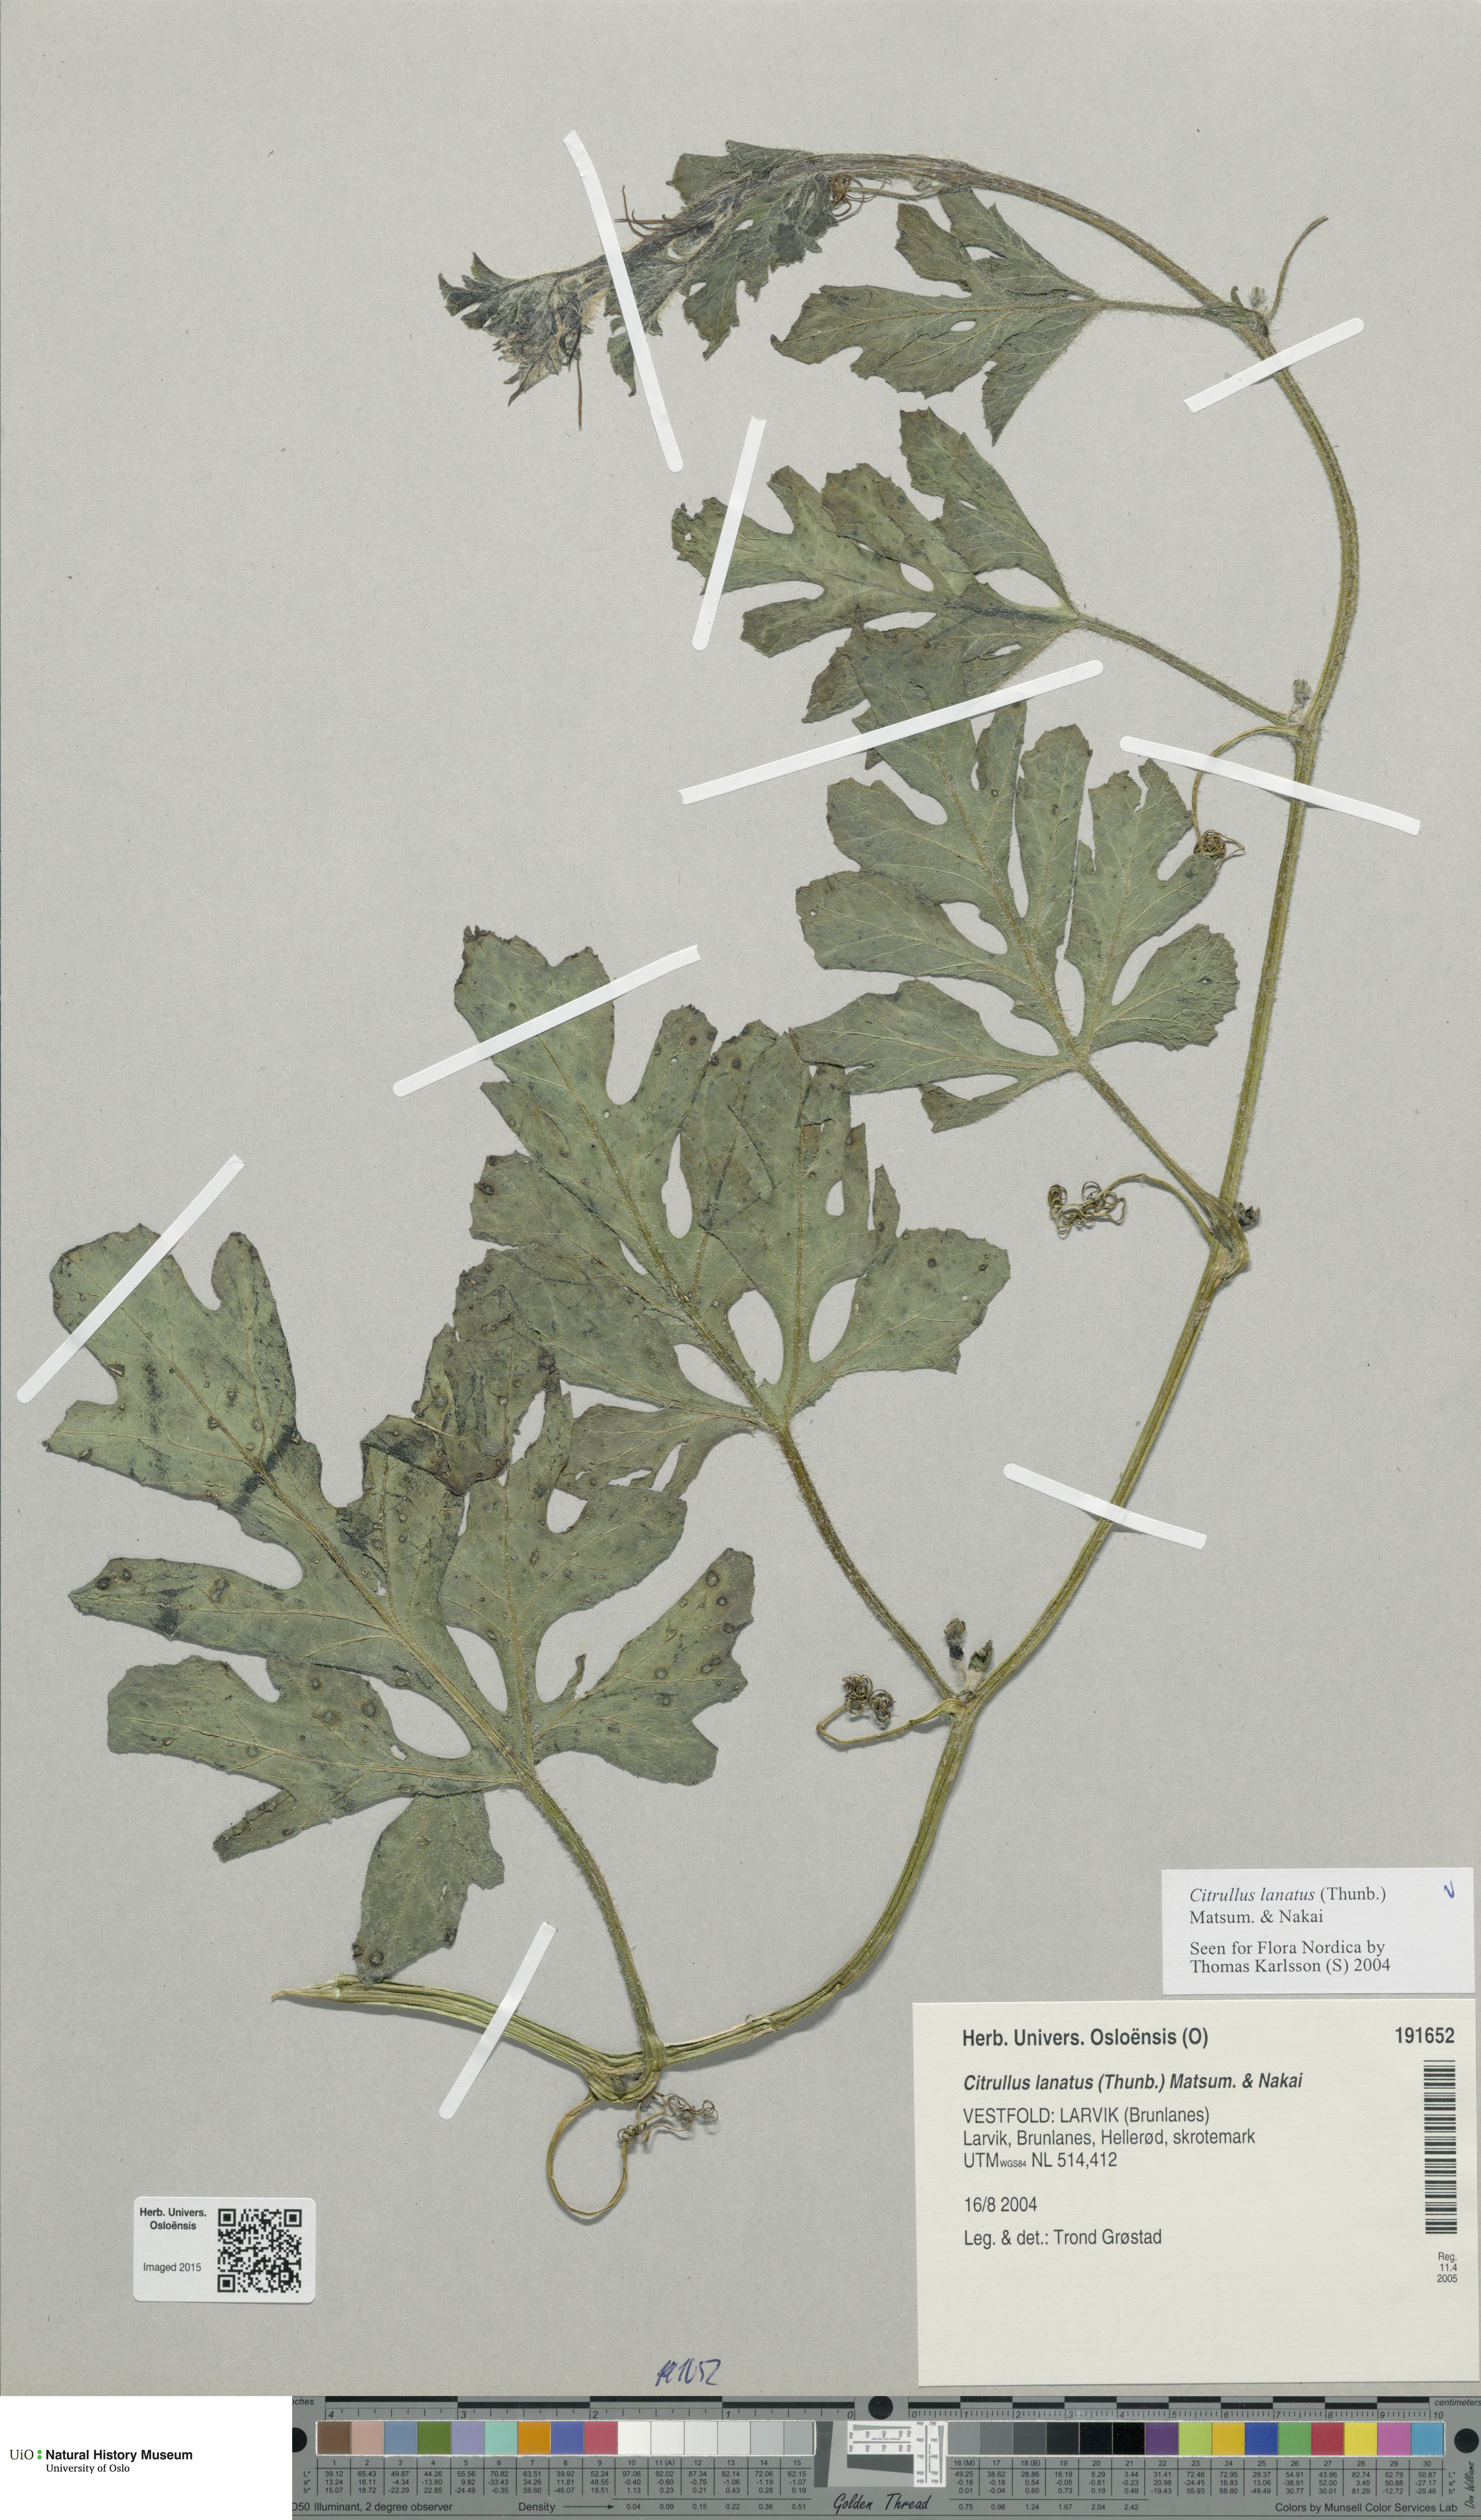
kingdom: Plantae
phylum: Tracheophyta
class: Magnoliopsida
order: Cucurbitales
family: Cucurbitaceae
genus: Citrullus
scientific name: Citrullus lanatus
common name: Watermelon
